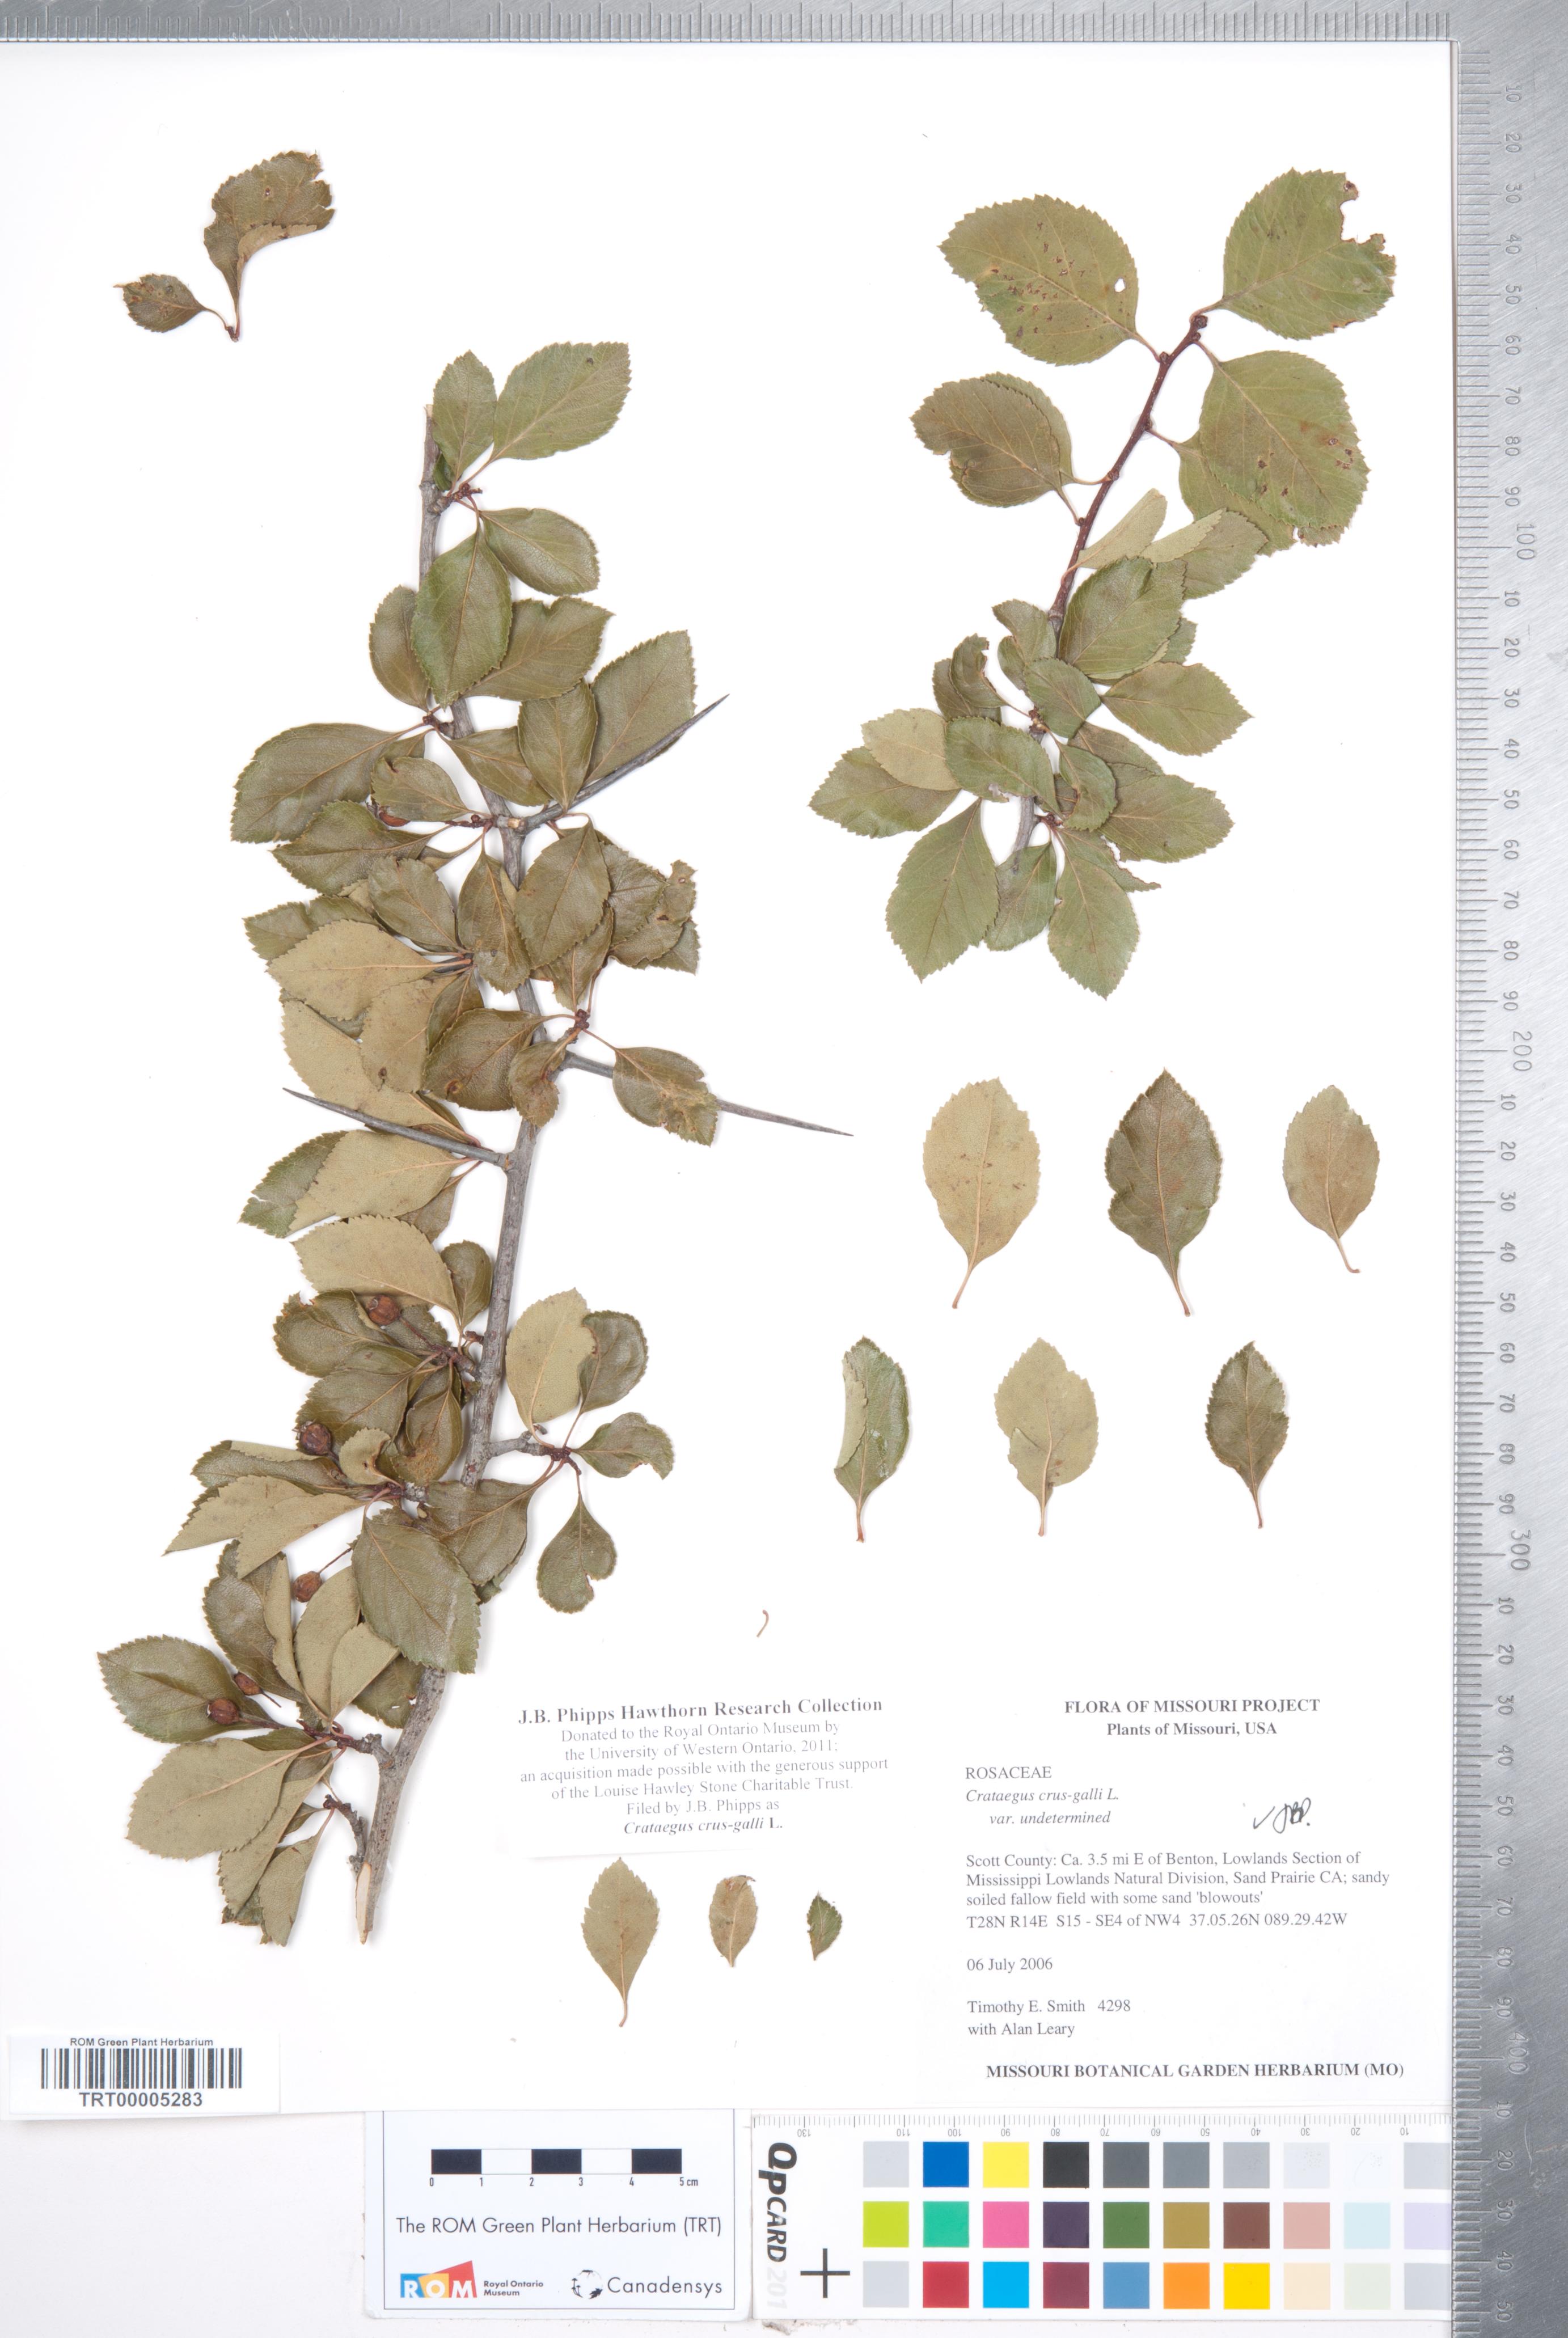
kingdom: Plantae
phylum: Tracheophyta
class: Magnoliopsida
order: Rosales
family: Rosaceae
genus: Crataegus
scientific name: Crataegus crus-galli
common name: Cockspurthorn
